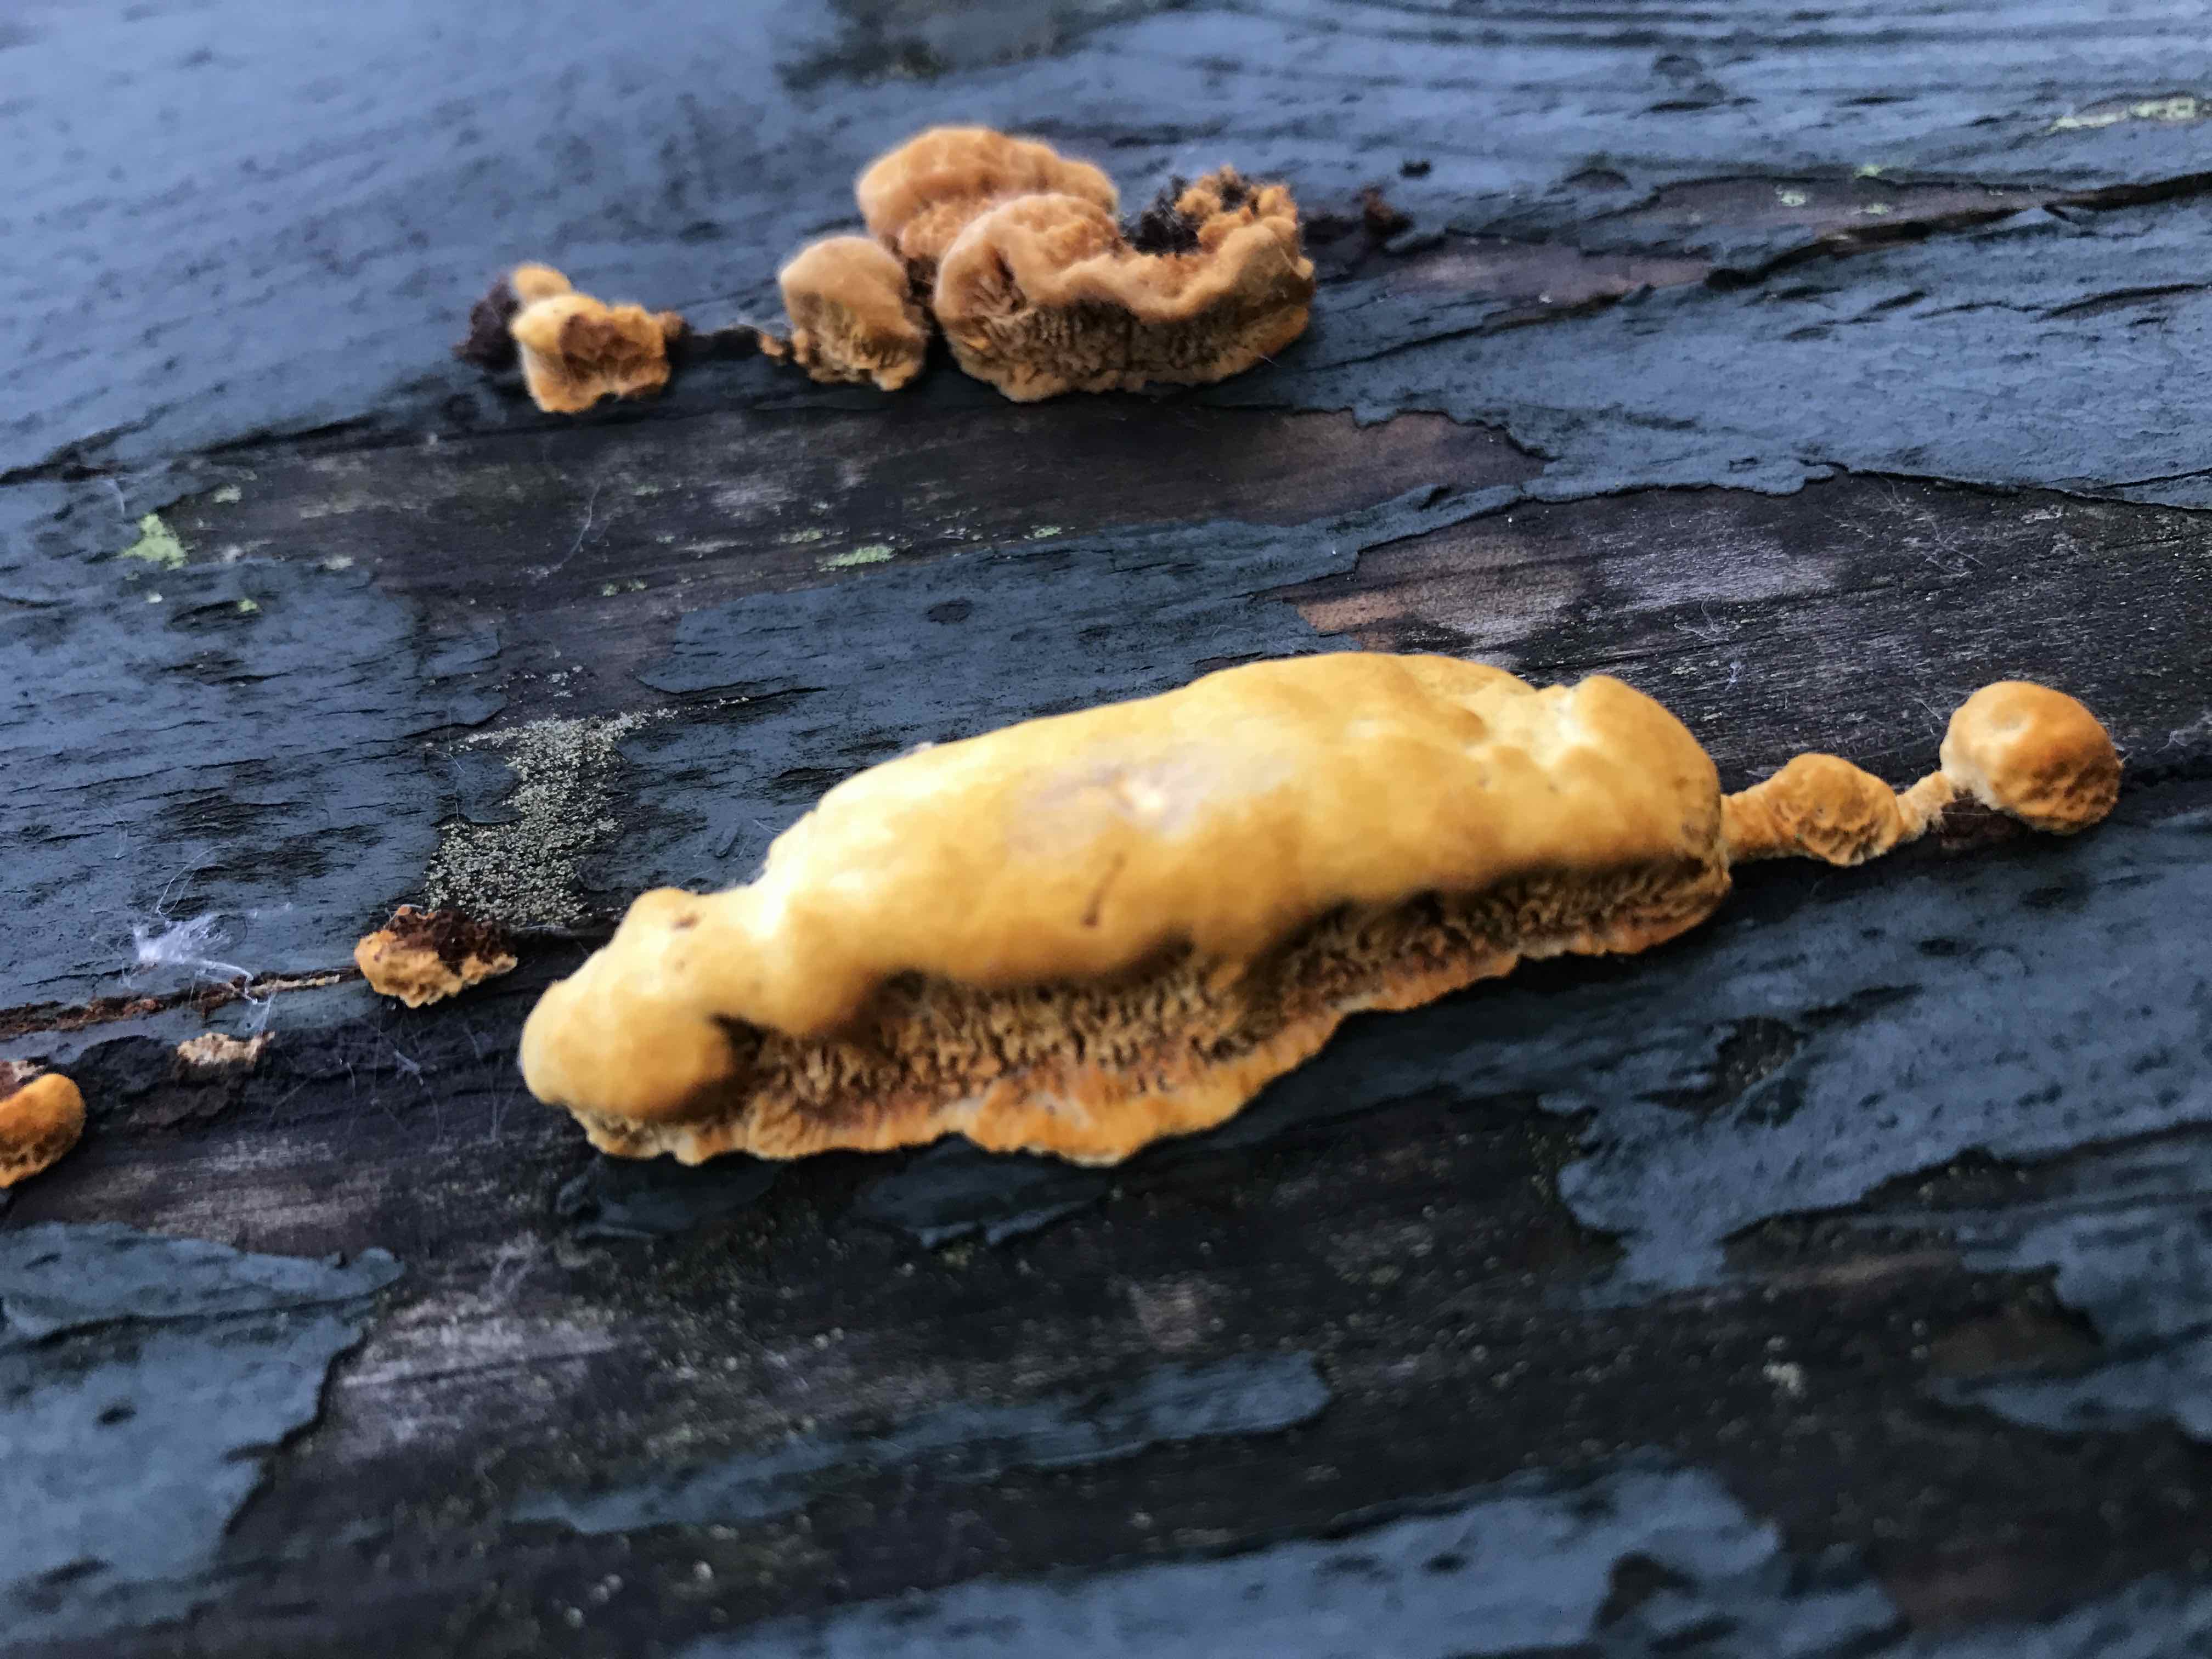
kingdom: Fungi
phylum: Basidiomycota
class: Agaricomycetes
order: Hymenochaetales
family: Hymenochaetaceae
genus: Fuscoporia
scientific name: Fuscoporia ferrea
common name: skorpe-ildporesvamp
